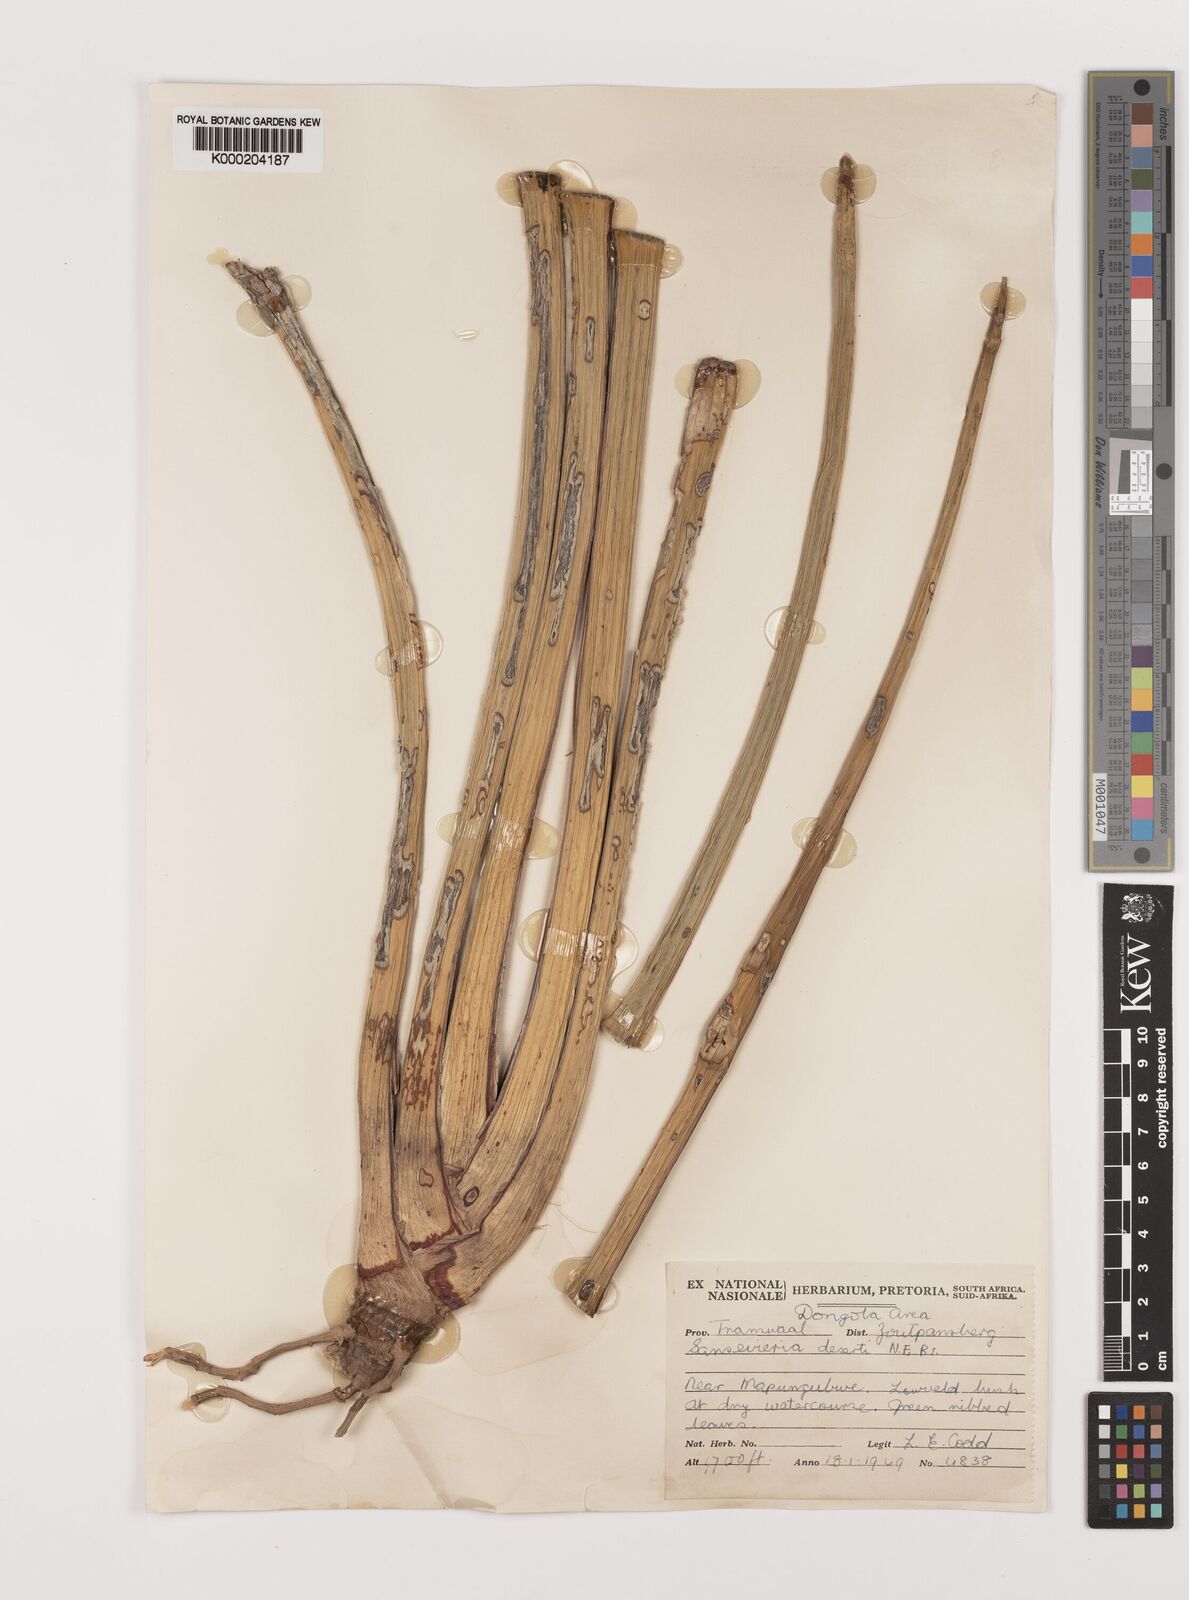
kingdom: Plantae
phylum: Tracheophyta
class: Liliopsida
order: Asparagales
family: Asparagaceae
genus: Dracaena
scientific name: Dracaena pearsonii
